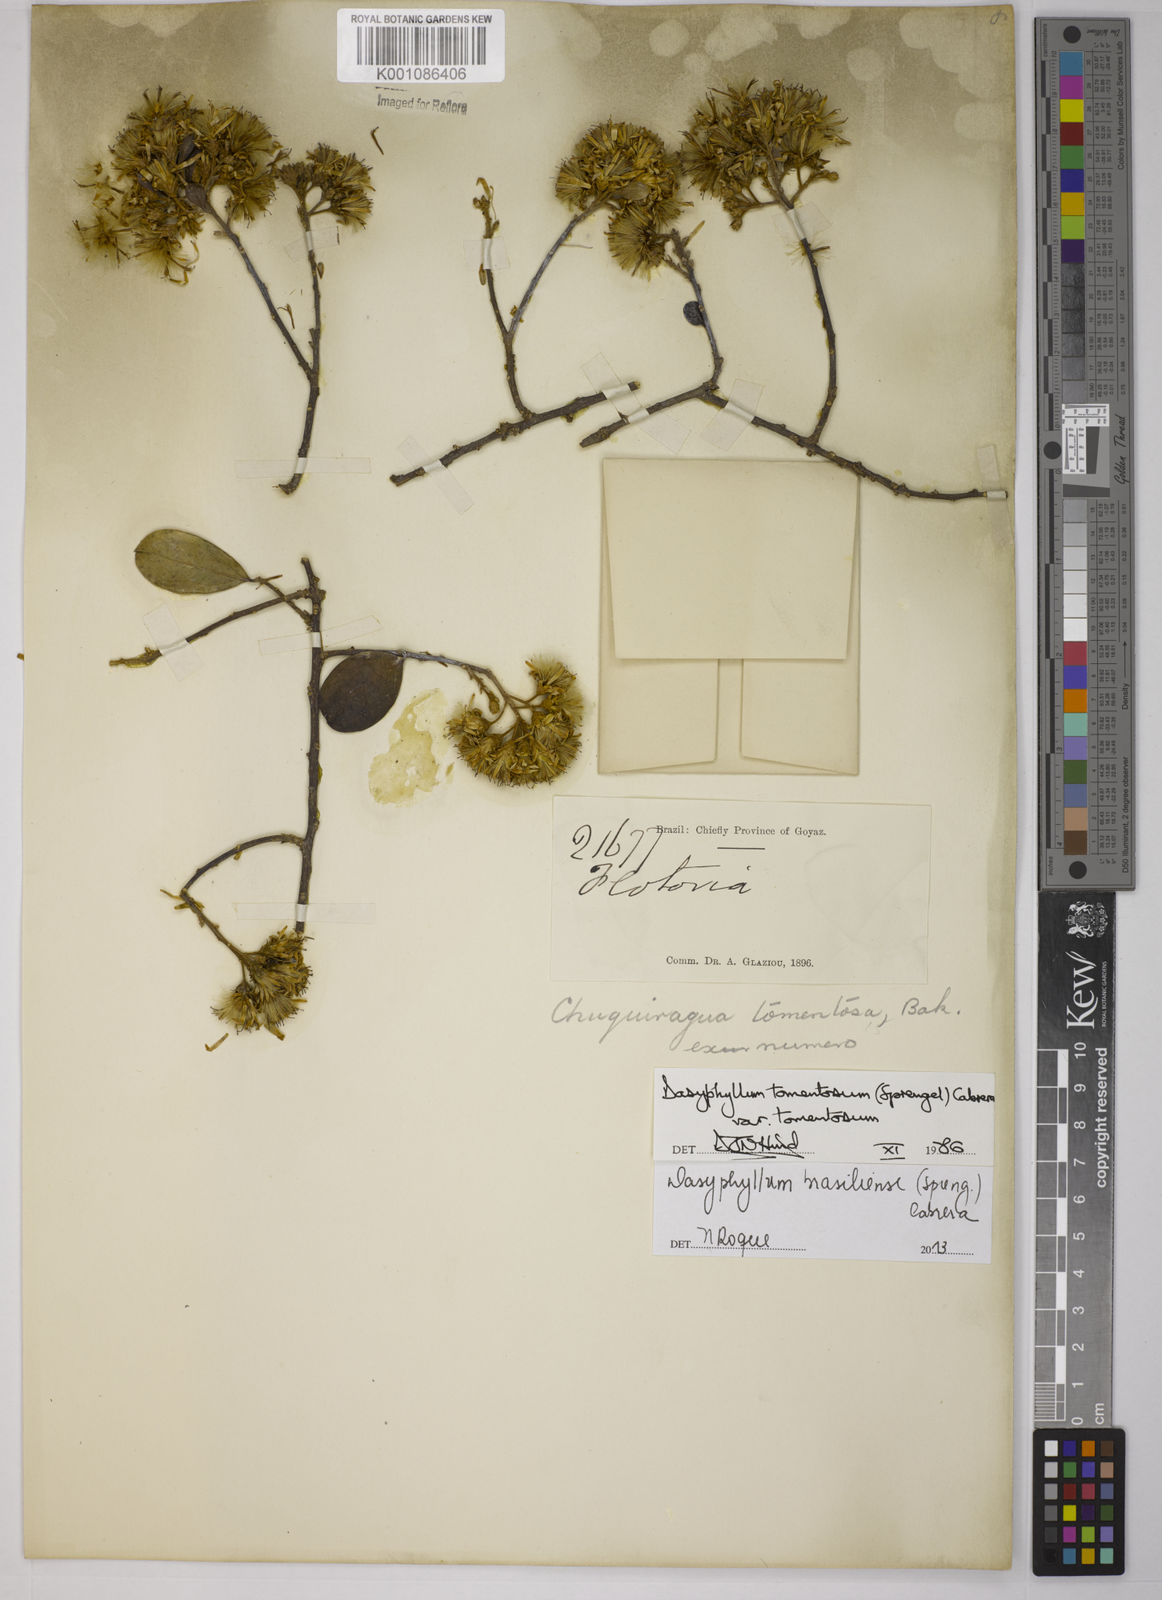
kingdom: Plantae
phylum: Tracheophyta
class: Magnoliopsida
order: Asterales
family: Asteraceae
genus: Dasyphyllum
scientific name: Dasyphyllum brasiliense
